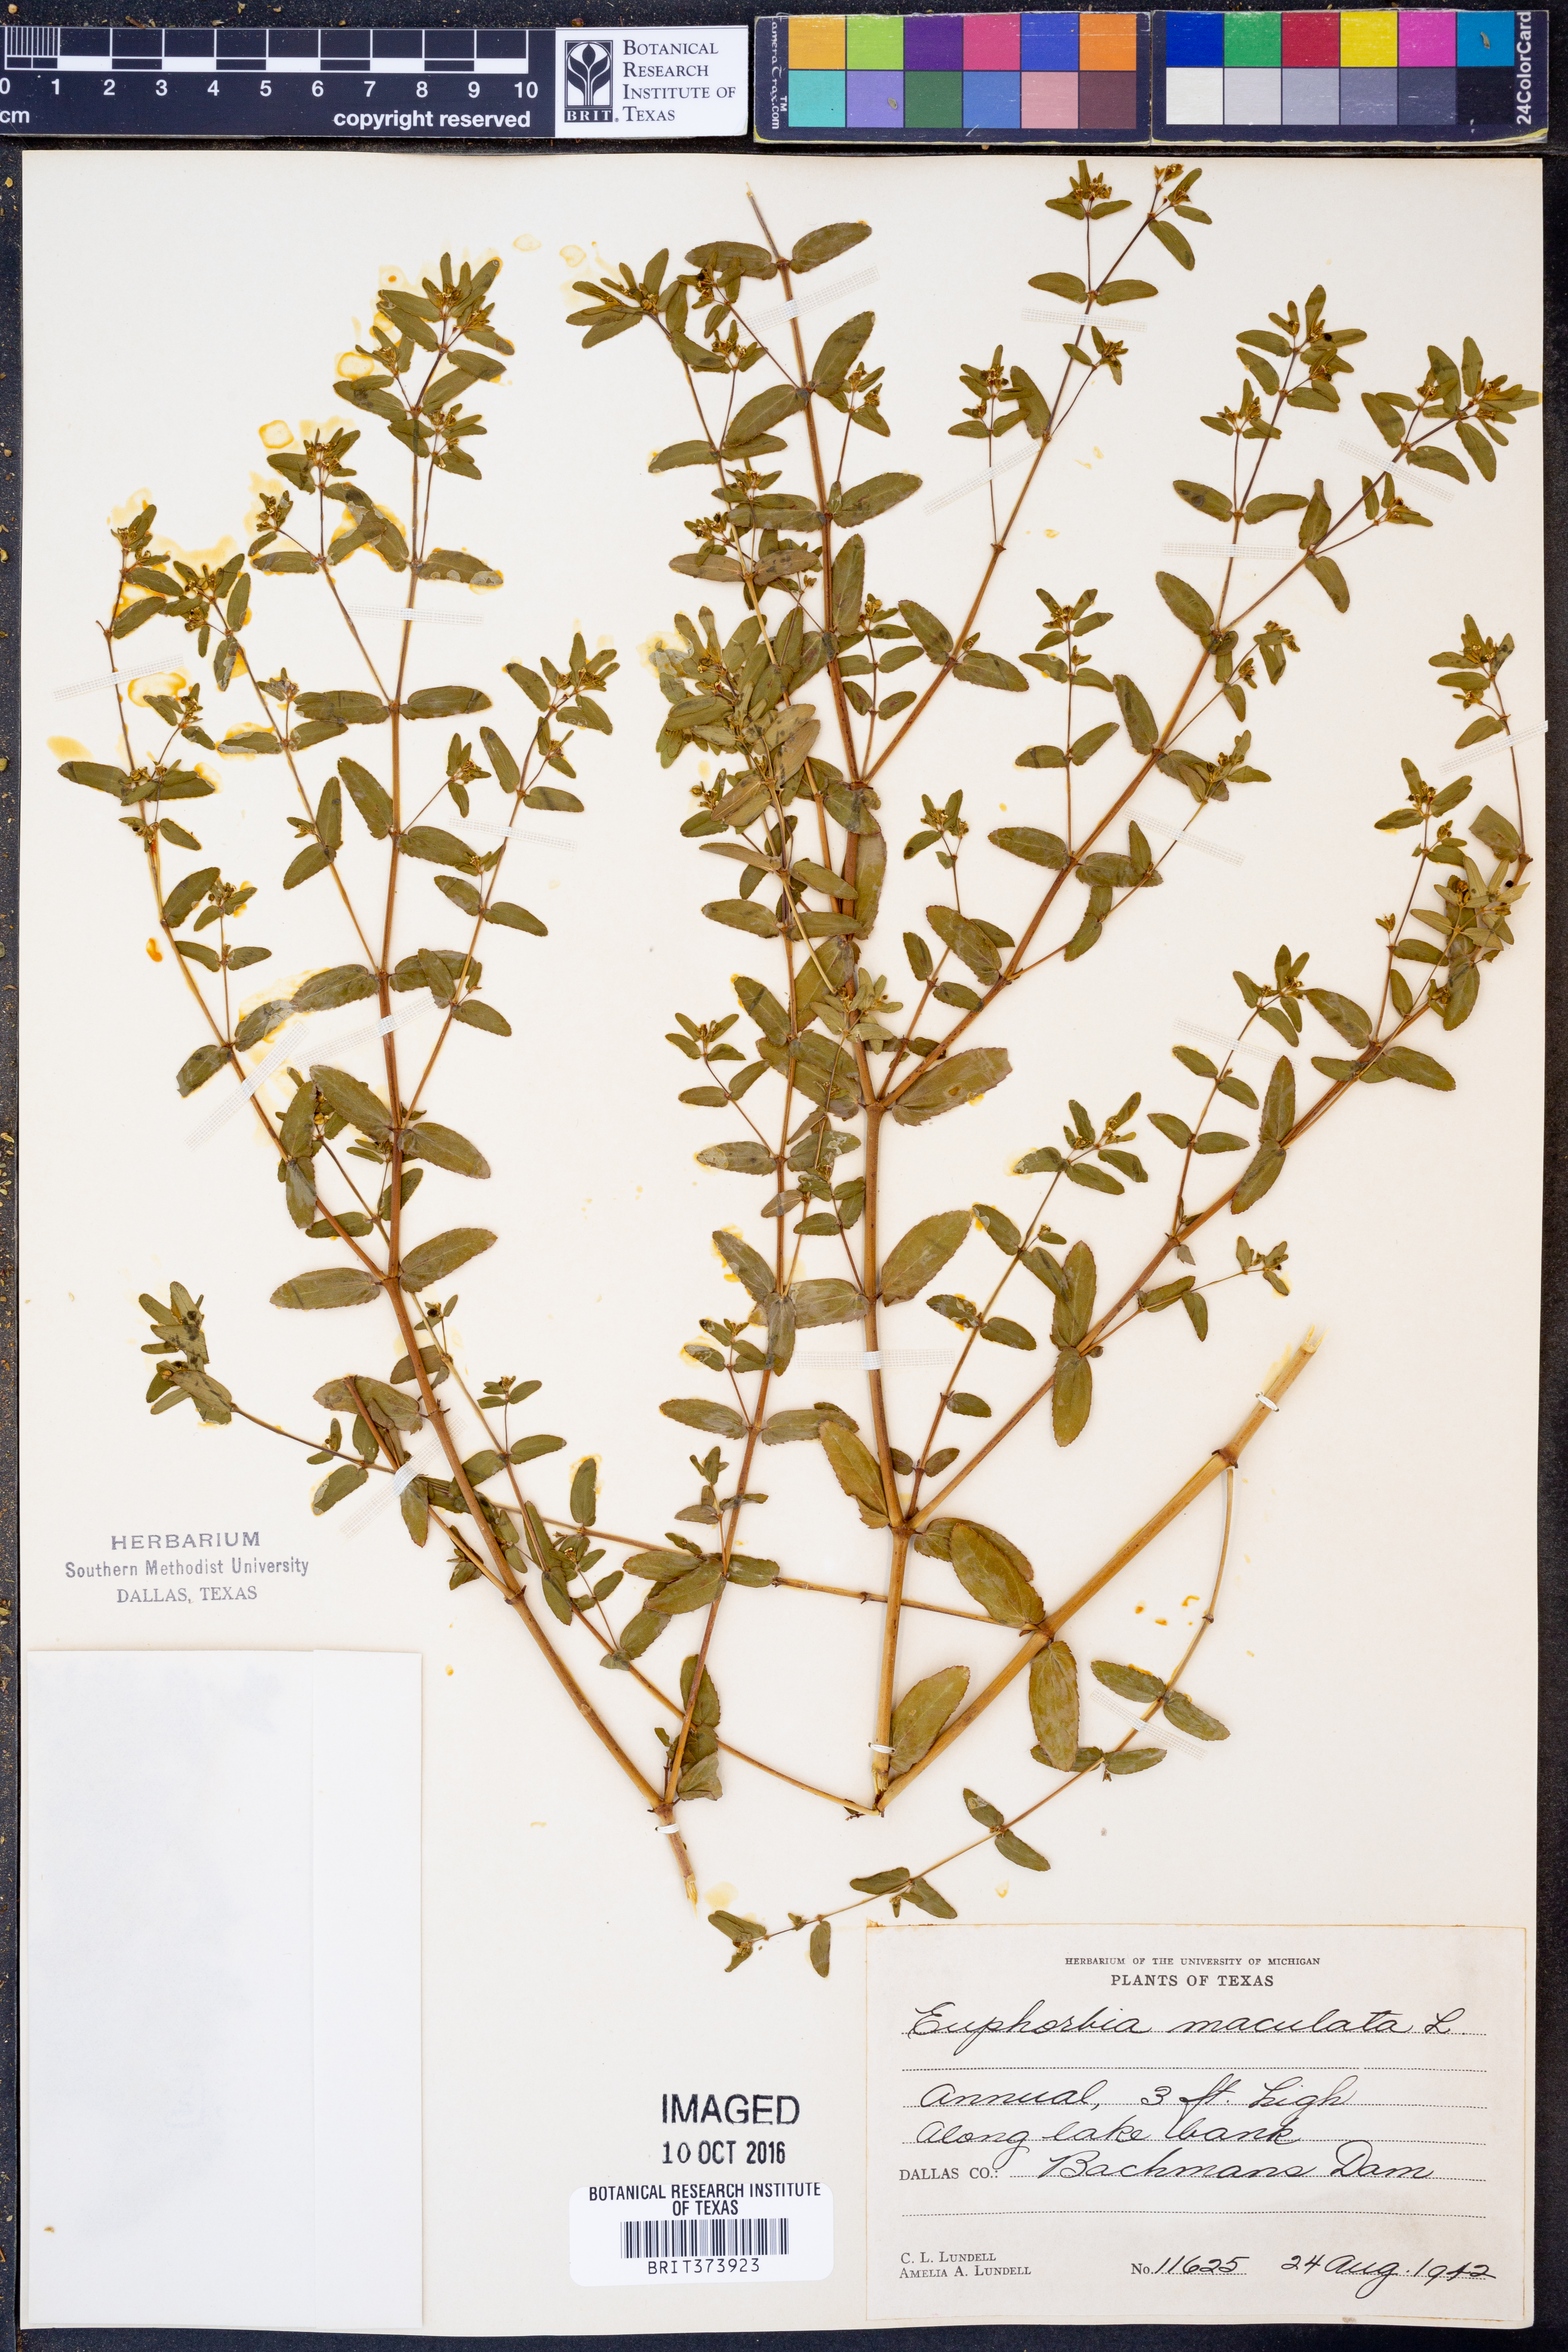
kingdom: Plantae
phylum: Tracheophyta
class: Magnoliopsida
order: Malpighiales
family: Euphorbiaceae
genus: Euphorbia
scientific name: Euphorbia maculata
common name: Spotted spurge
